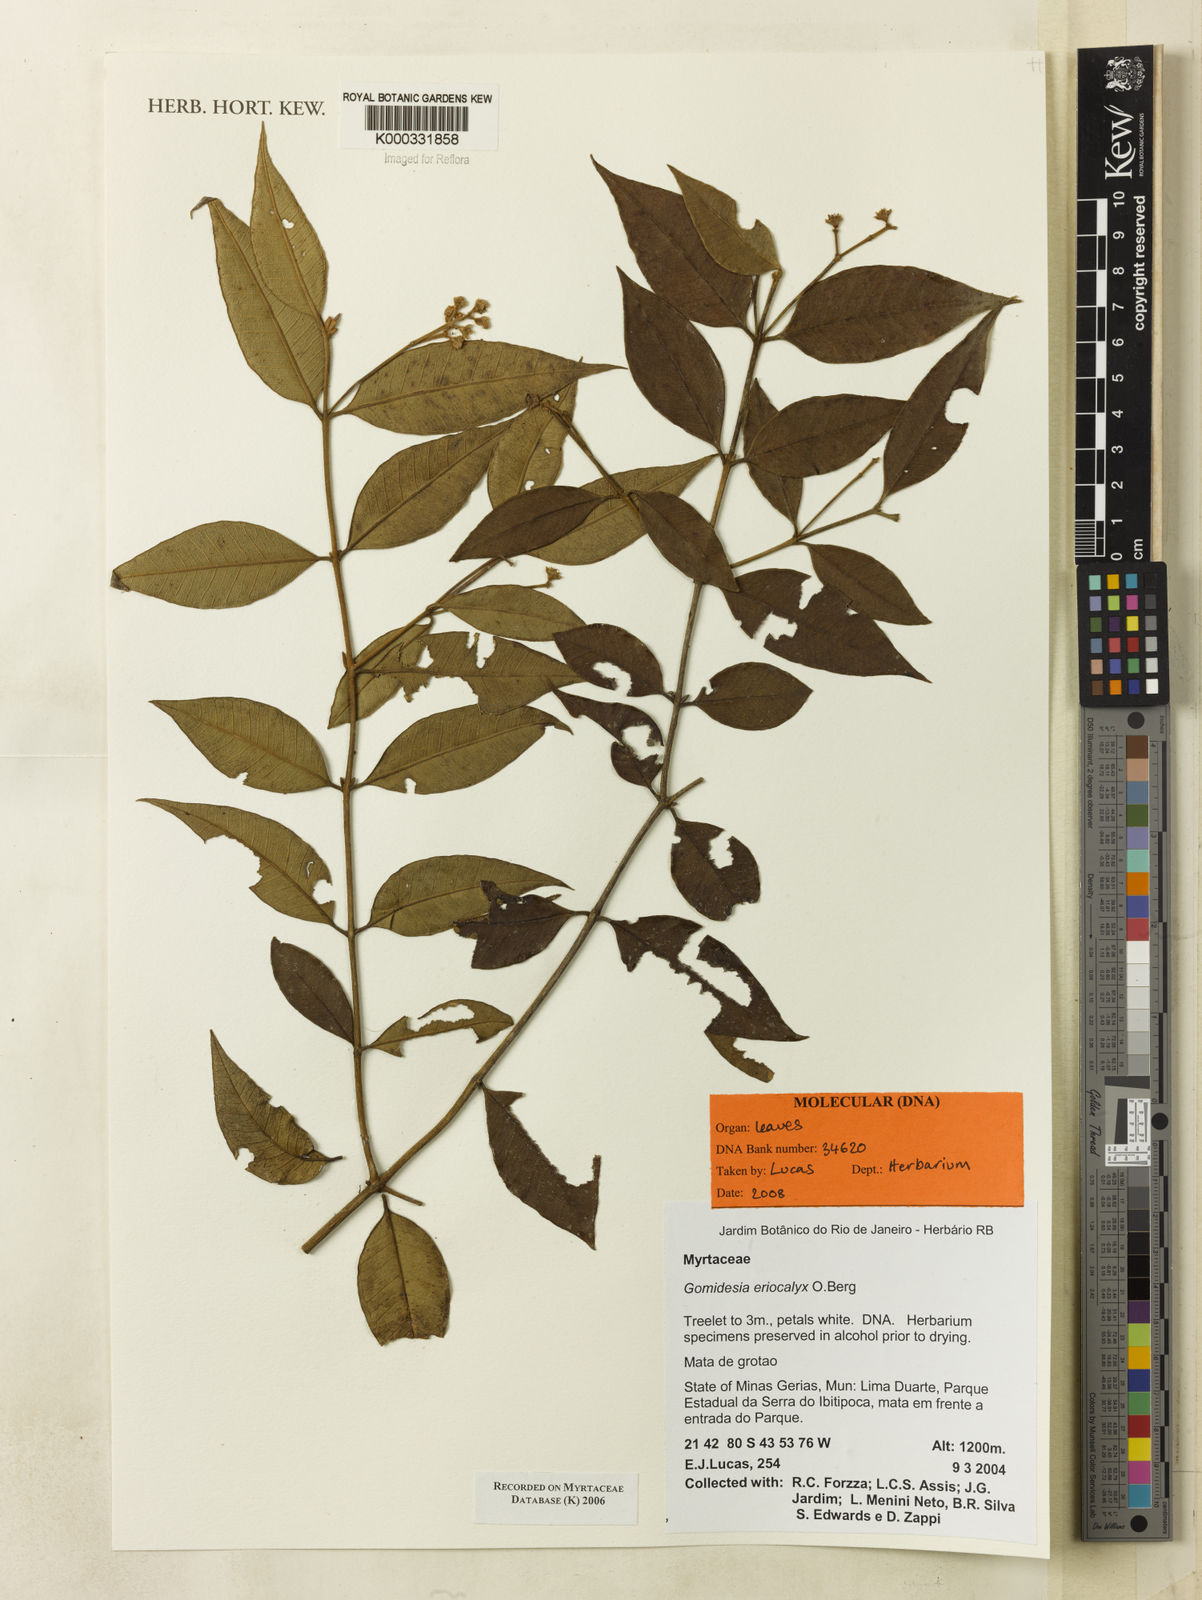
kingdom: Plantae
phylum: Tracheophyta
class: Magnoliopsida
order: Myrtales
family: Myrtaceae
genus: Myrcia
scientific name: Myrcia eriocalyx
